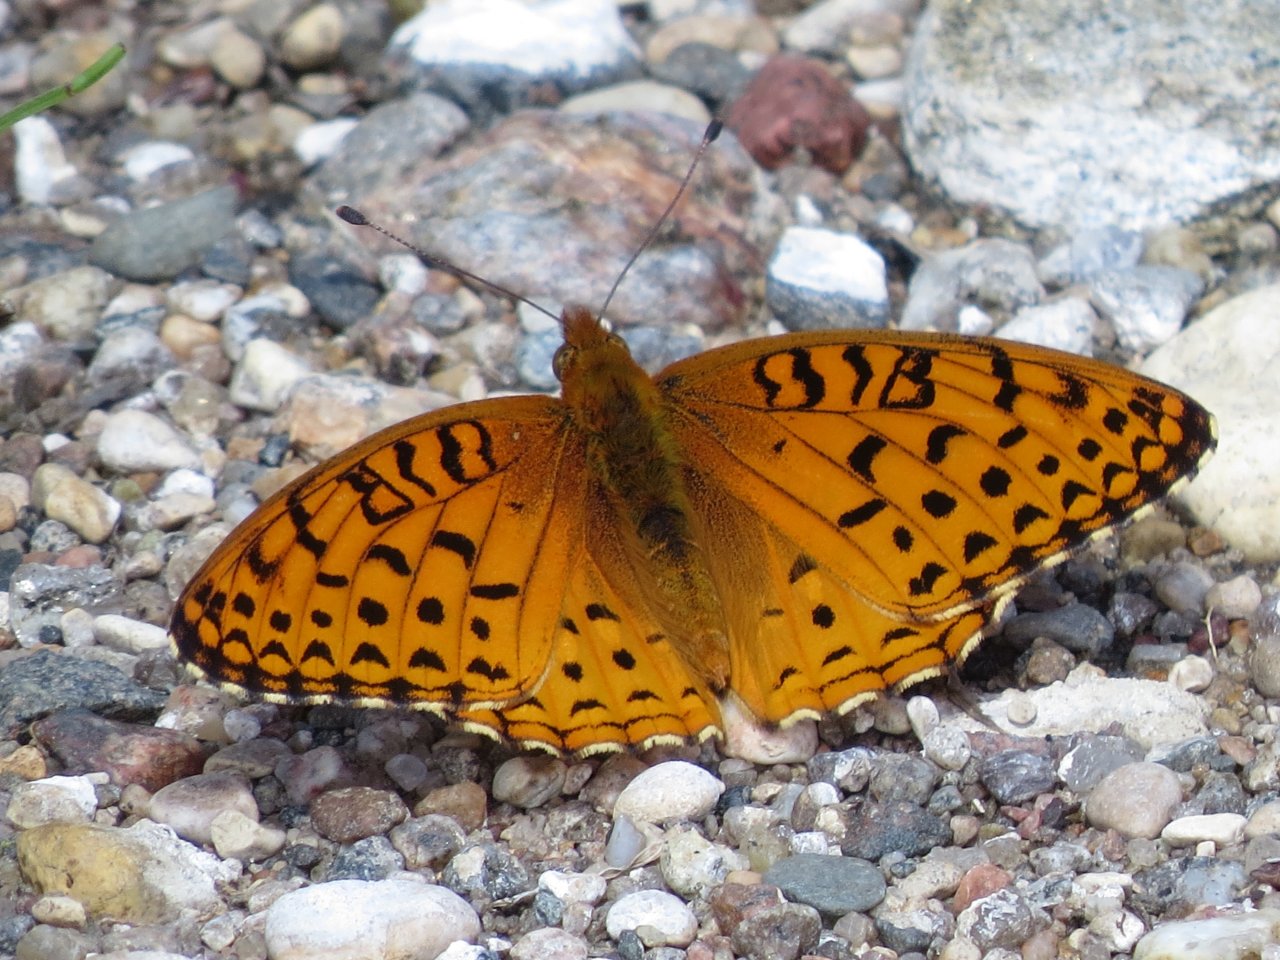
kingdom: Animalia
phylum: Arthropoda
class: Insecta
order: Lepidoptera
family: Nymphalidae
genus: Speyeria
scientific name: Speyeria cybele
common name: Great Spangled Fritillary
